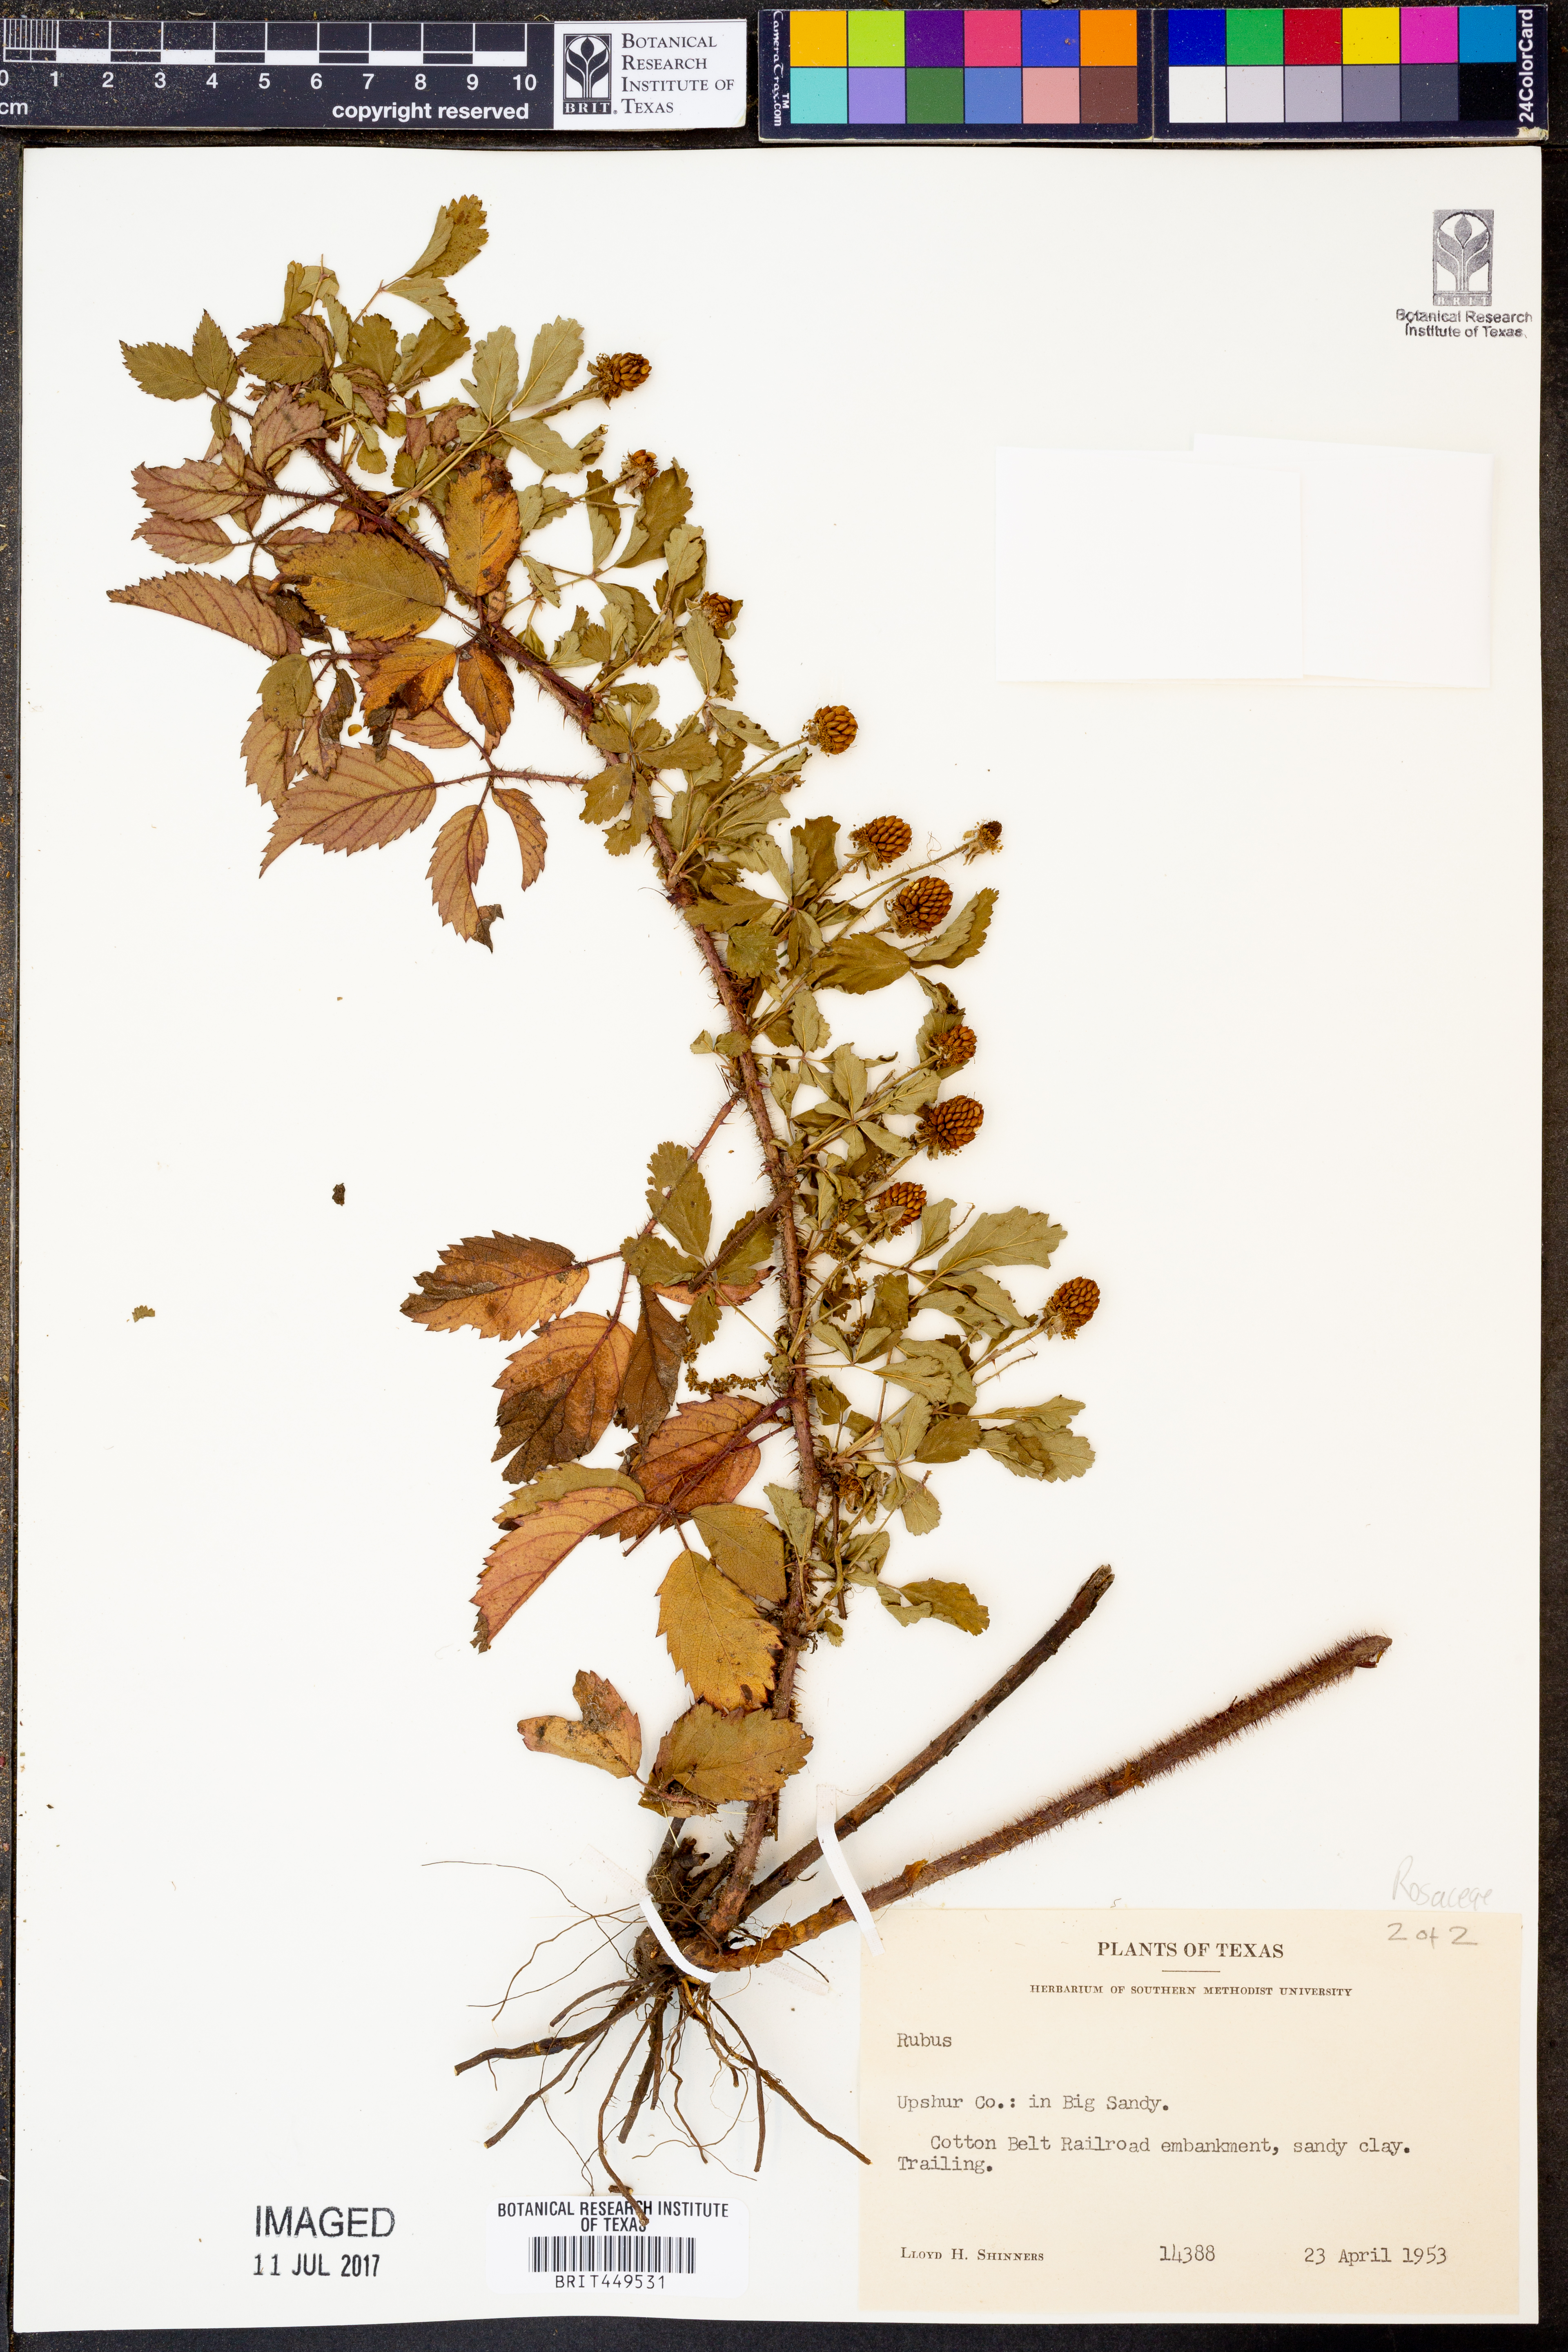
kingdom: Plantae
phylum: Tracheophyta
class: Magnoliopsida
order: Rosales
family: Rosaceae
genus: Rubus
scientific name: Rubus
